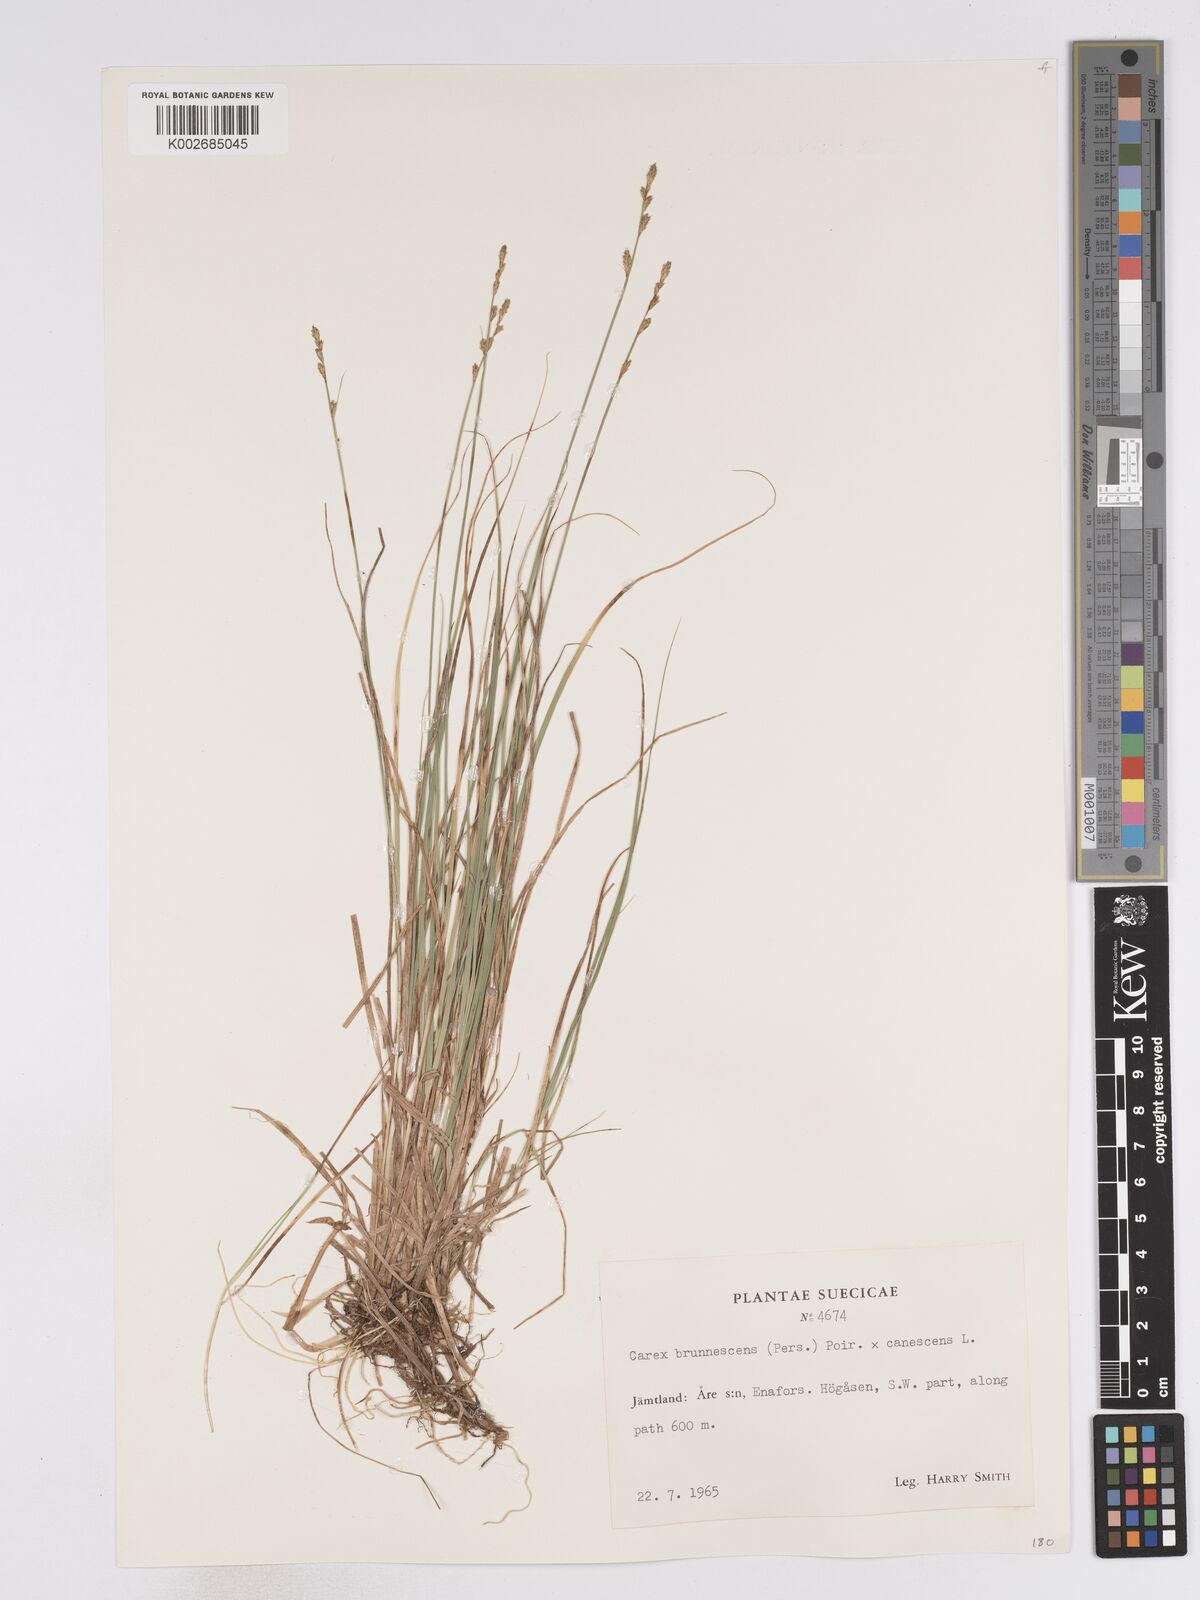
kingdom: Plantae
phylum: Tracheophyta
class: Liliopsida
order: Poales
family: Cyperaceae
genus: Carex
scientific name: Carex brunnescens
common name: Brown sedge
